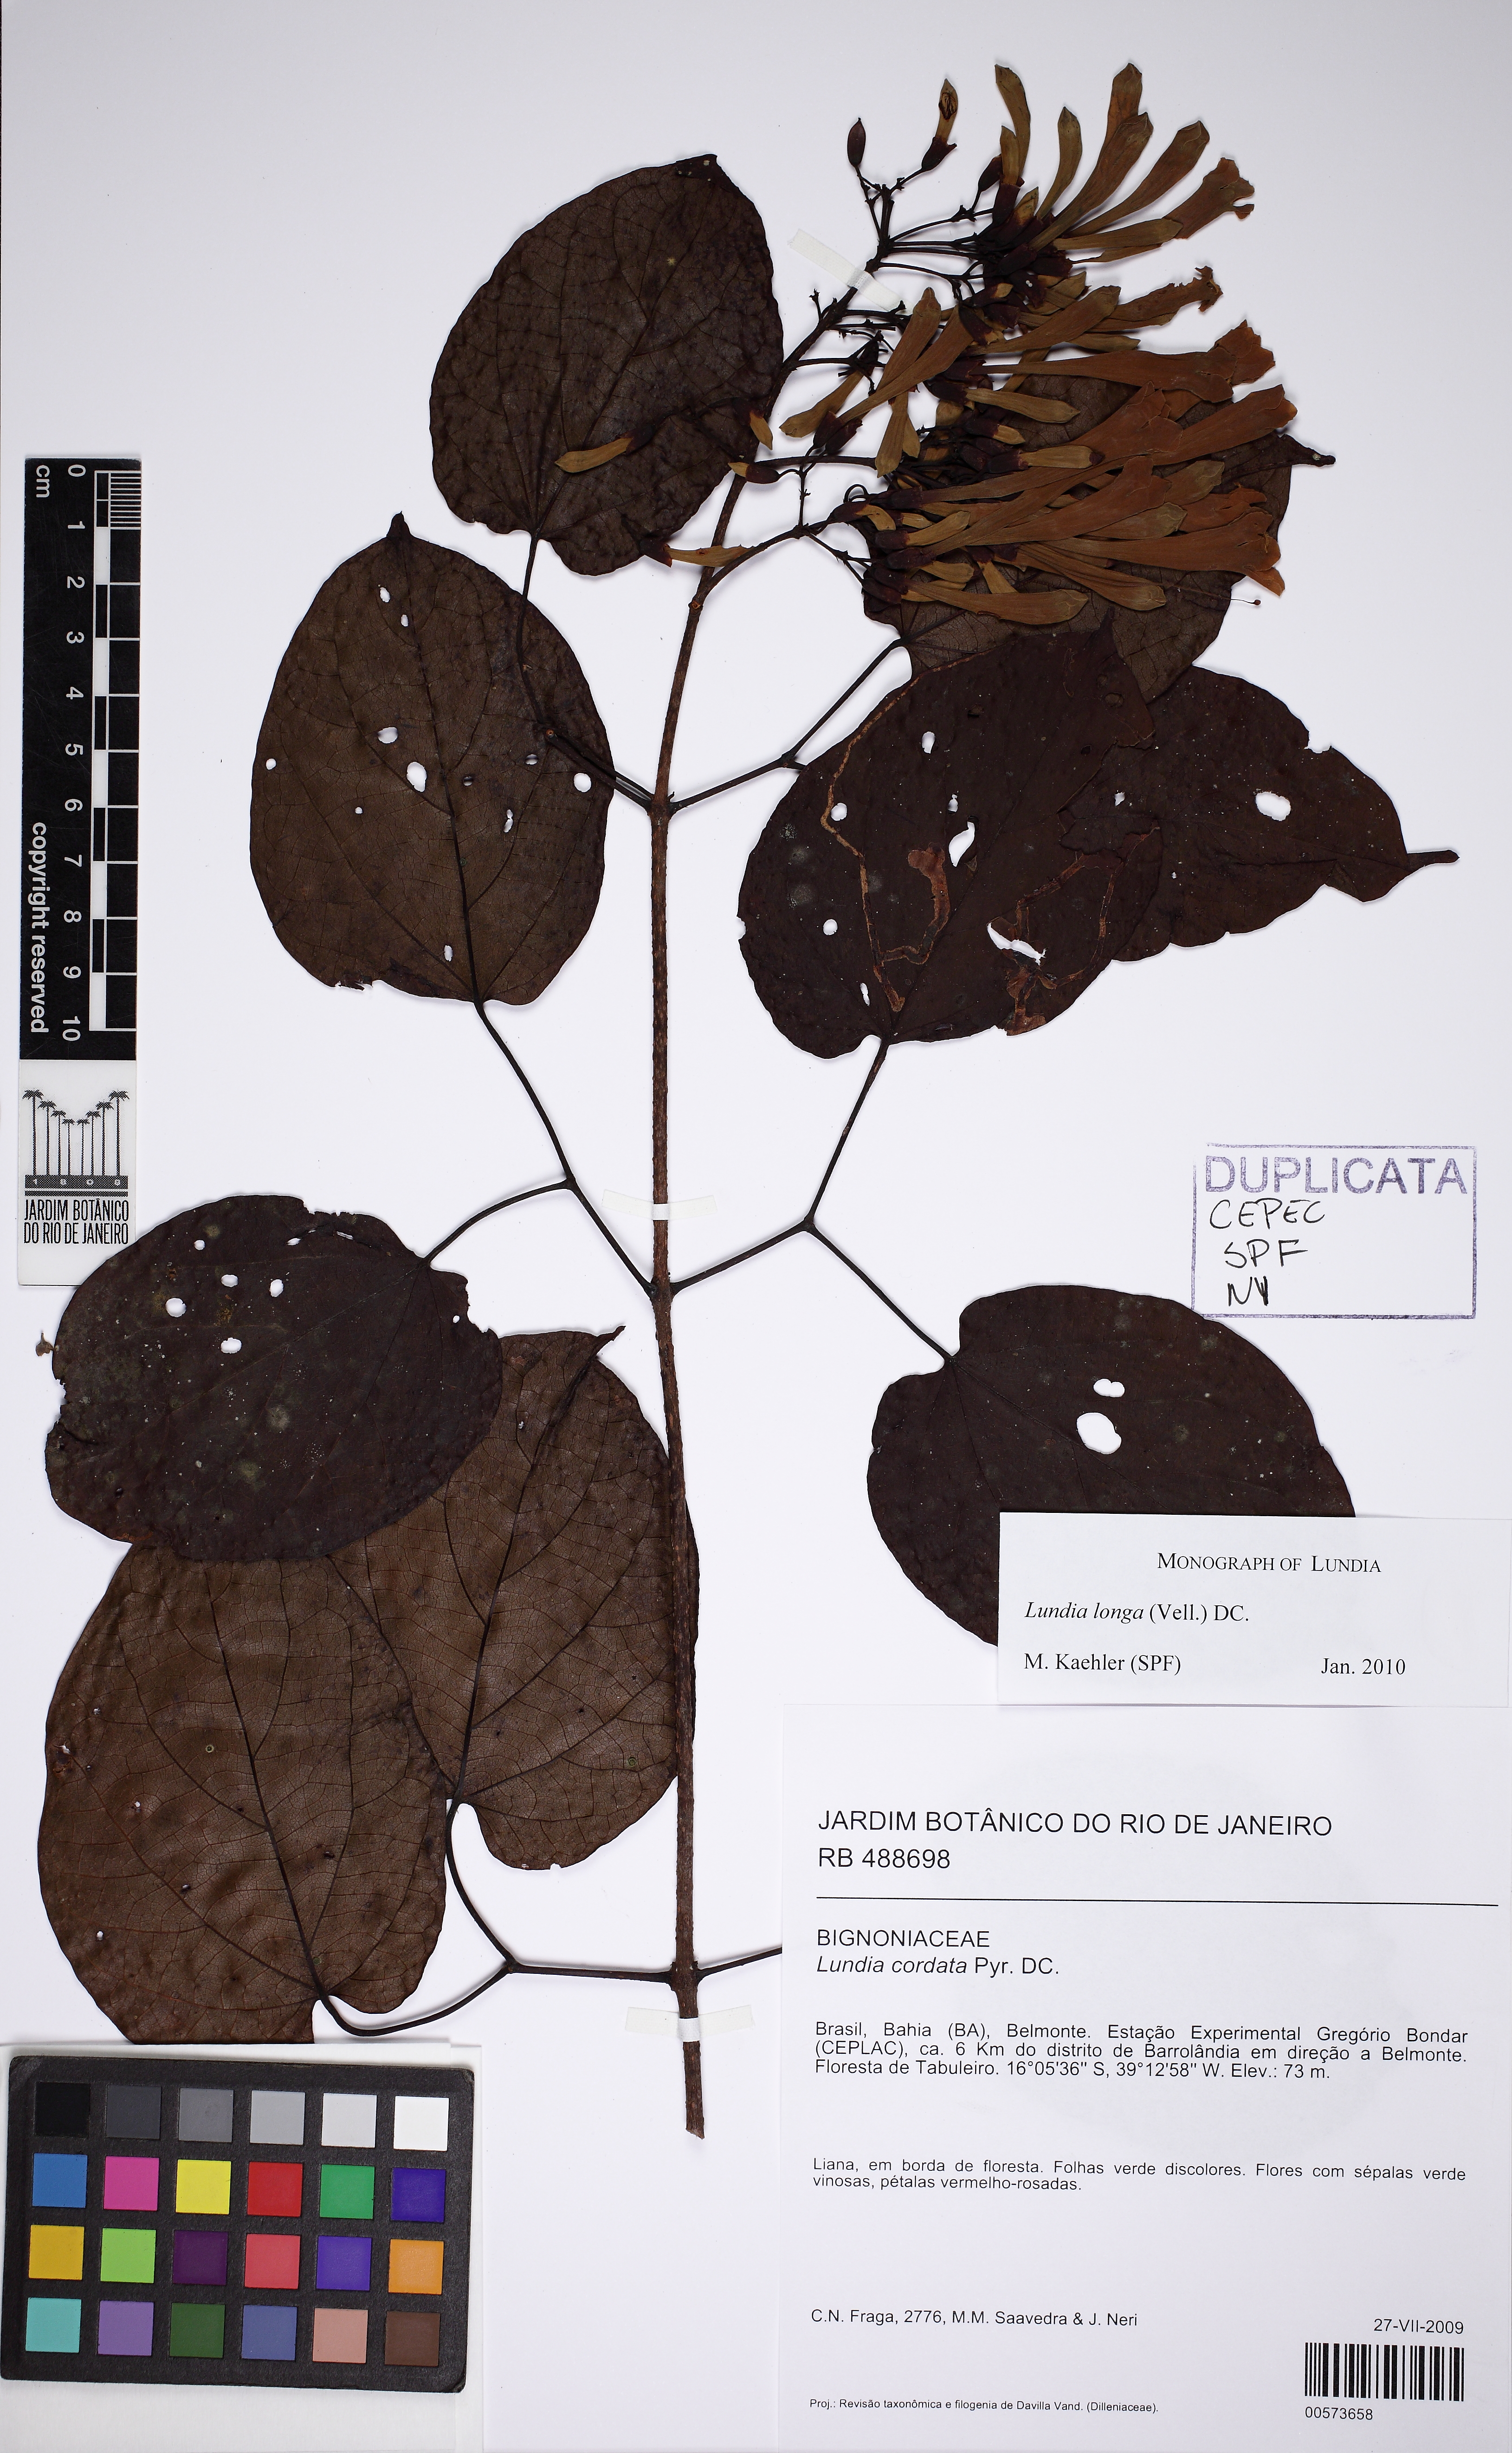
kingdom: Plantae
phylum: Tracheophyta
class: Magnoliopsida
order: Lamiales
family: Bignoniaceae
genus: Lundia
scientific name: Lundia longa
